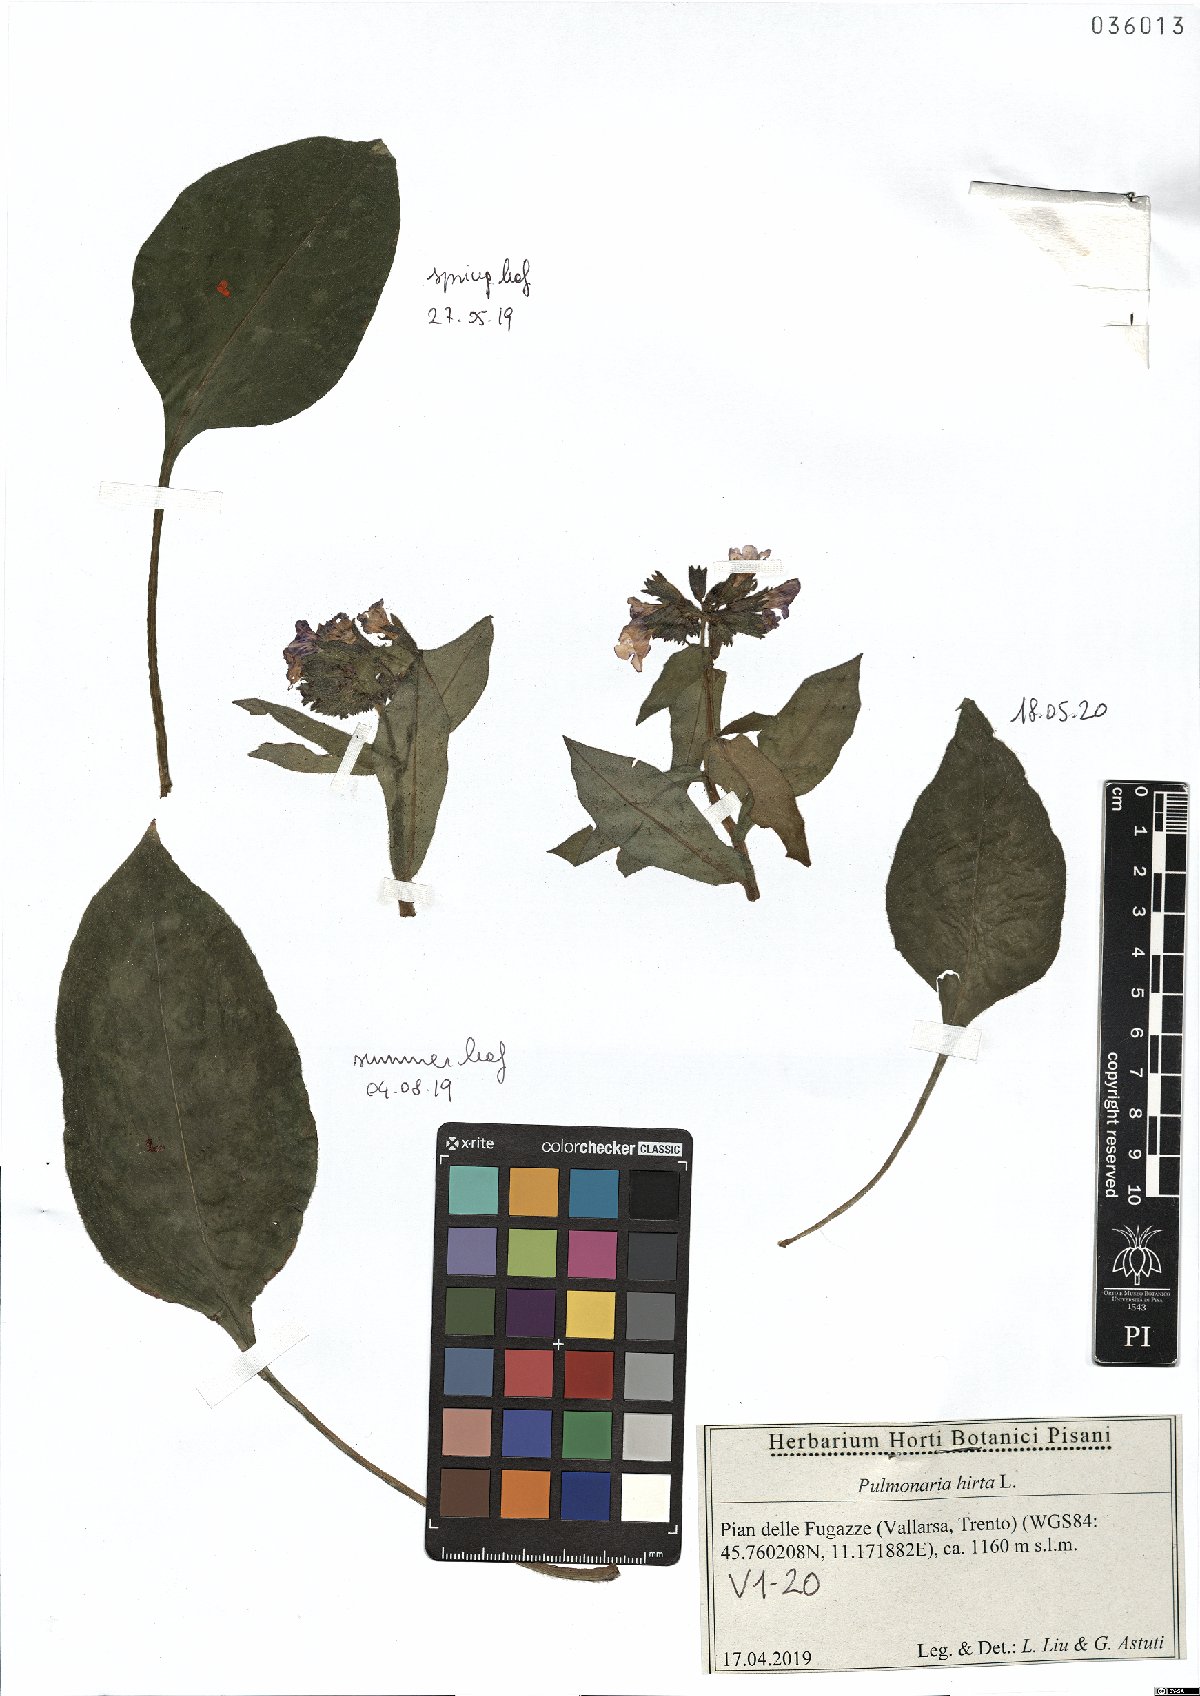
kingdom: Plantae
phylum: Tracheophyta
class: Magnoliopsida
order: Boraginales
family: Boraginaceae
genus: Pulmonaria
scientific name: Pulmonaria hirta
